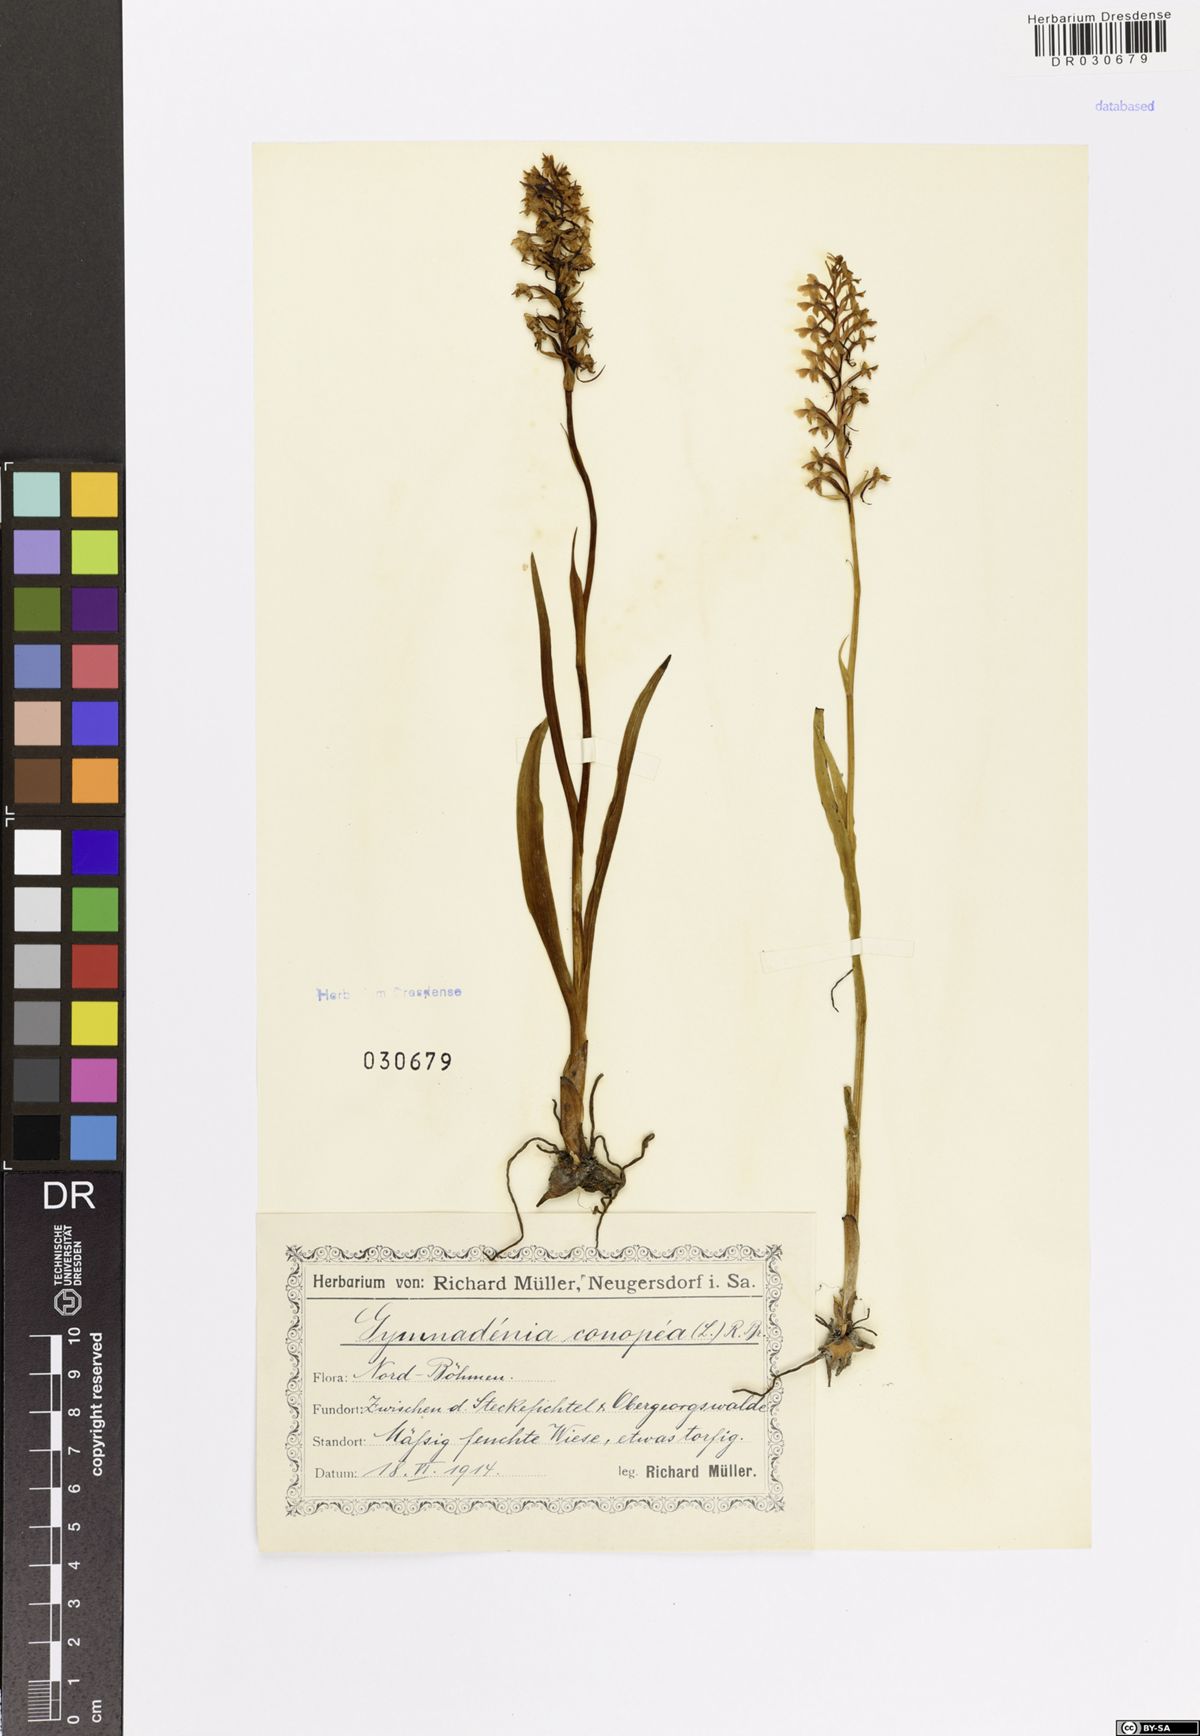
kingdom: Plantae
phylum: Tracheophyta
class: Liliopsida
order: Asparagales
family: Orchidaceae
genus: Gymnadenia
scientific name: Gymnadenia conopsea
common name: Fragrant orchid
